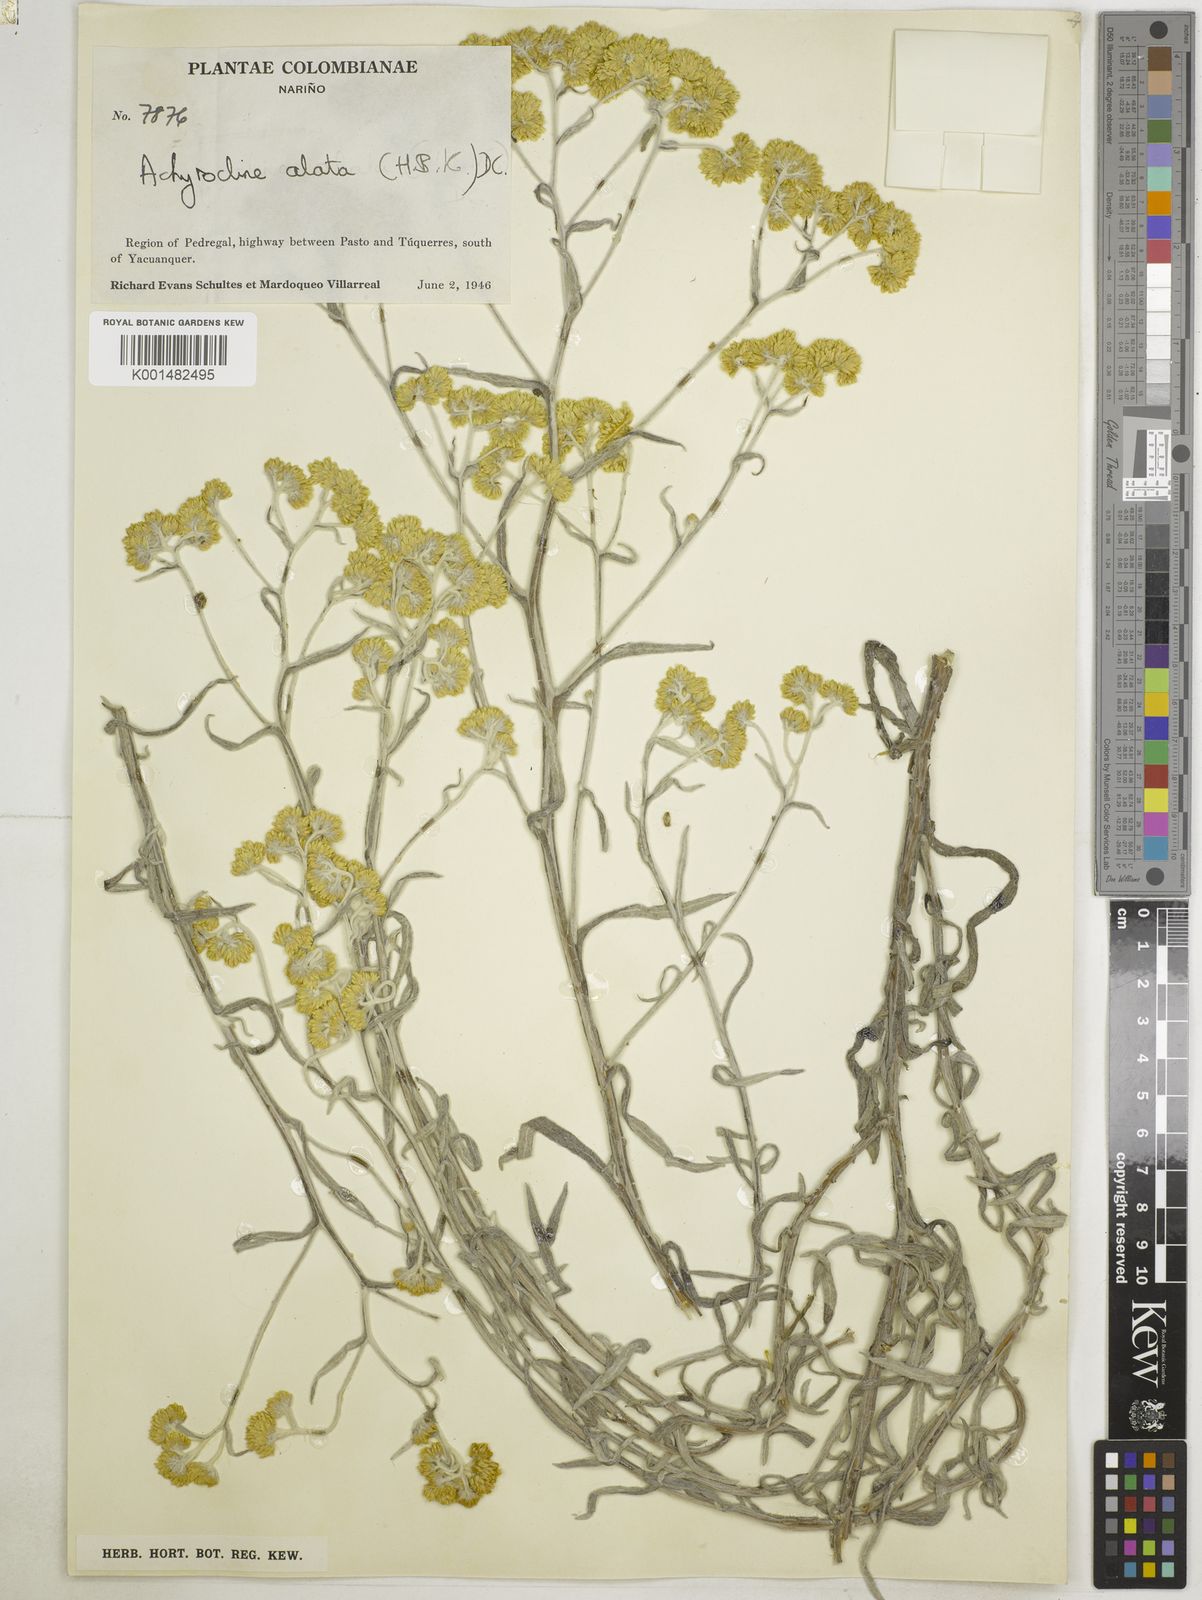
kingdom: Plantae
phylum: Tracheophyta
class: Magnoliopsida
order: Asterales
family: Asteraceae
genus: Achyrocline
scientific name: Achyrocline alata
